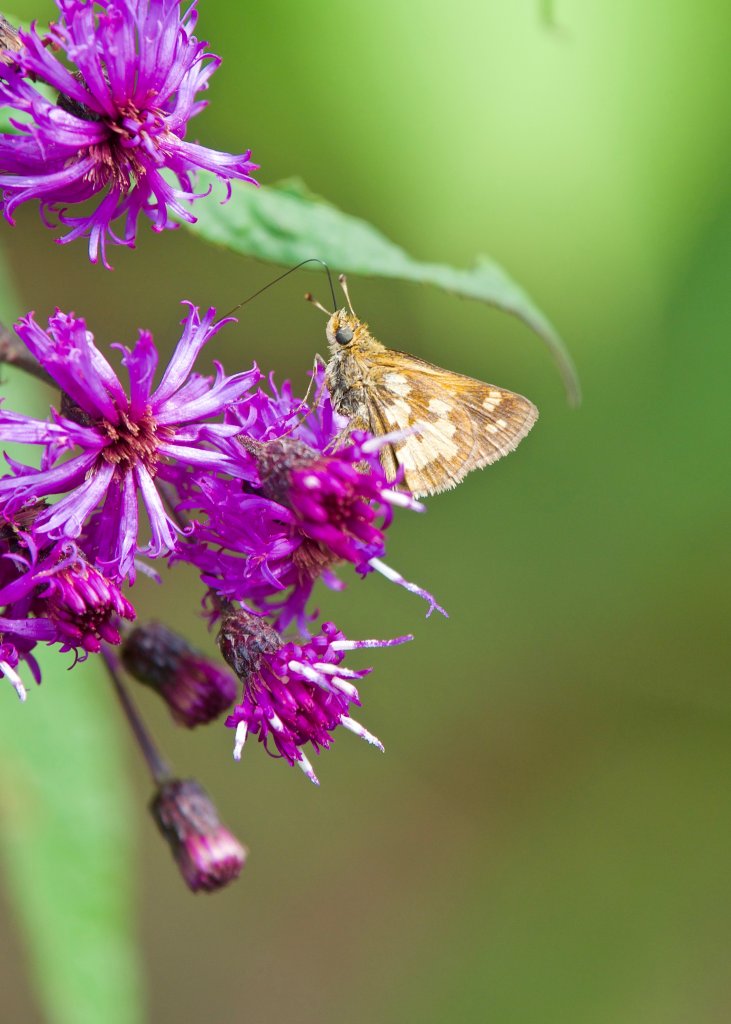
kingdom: Animalia
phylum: Arthropoda
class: Insecta
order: Lepidoptera
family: Hesperiidae
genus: Polites
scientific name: Polites coras
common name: Peck's Skipper
